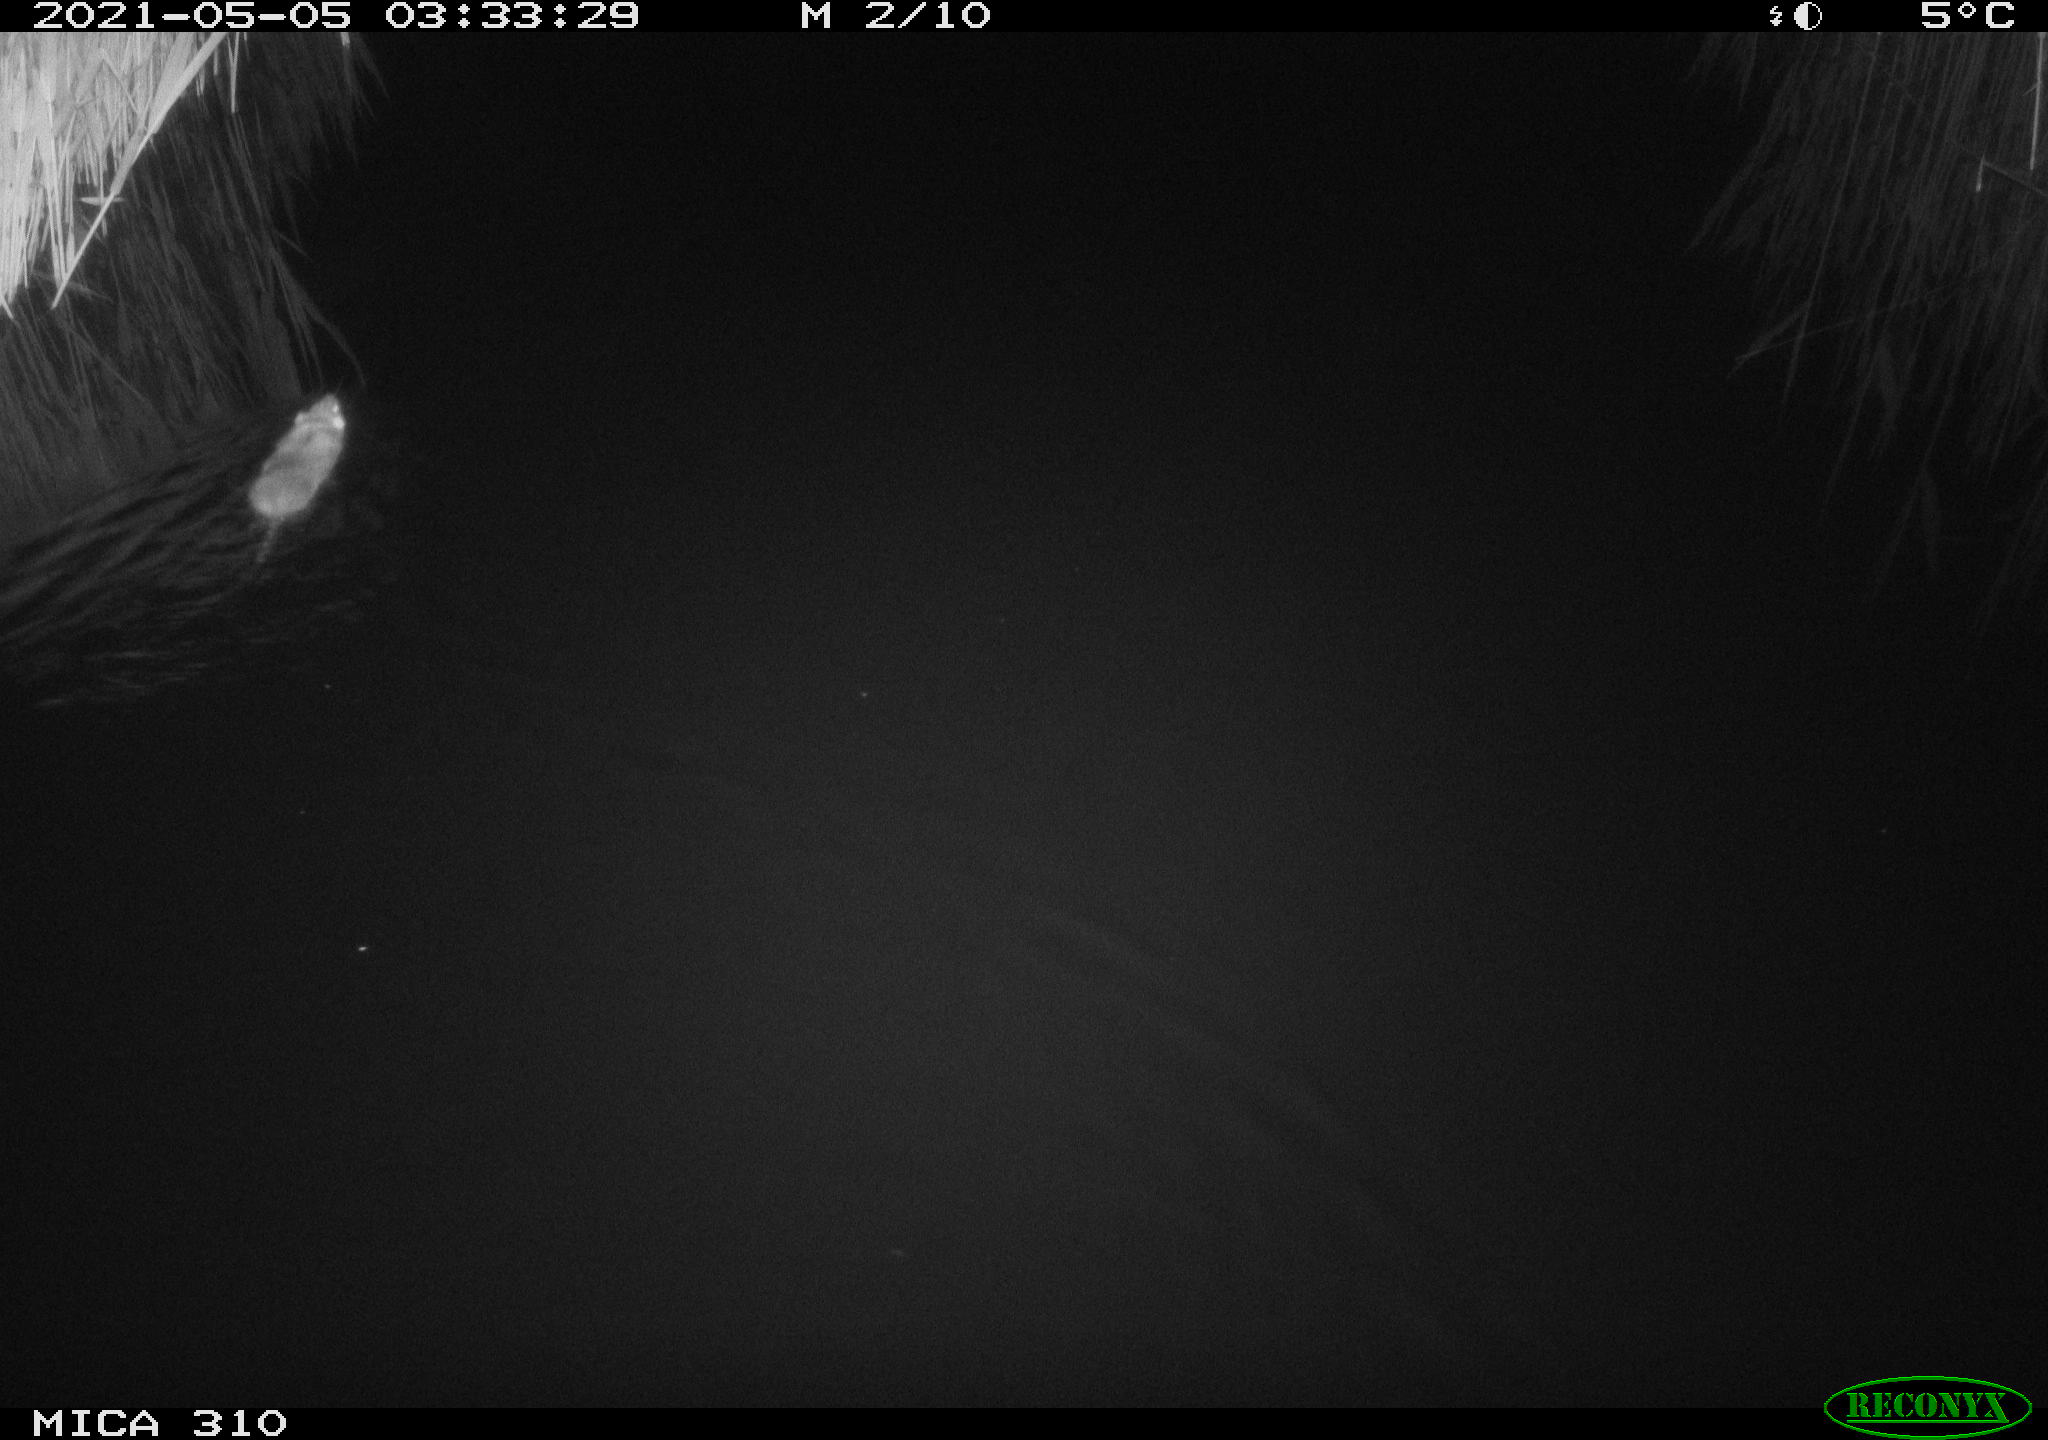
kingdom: Animalia
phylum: Chordata
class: Mammalia
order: Rodentia
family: Muridae
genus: Rattus
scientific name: Rattus norvegicus
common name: Brown rat
